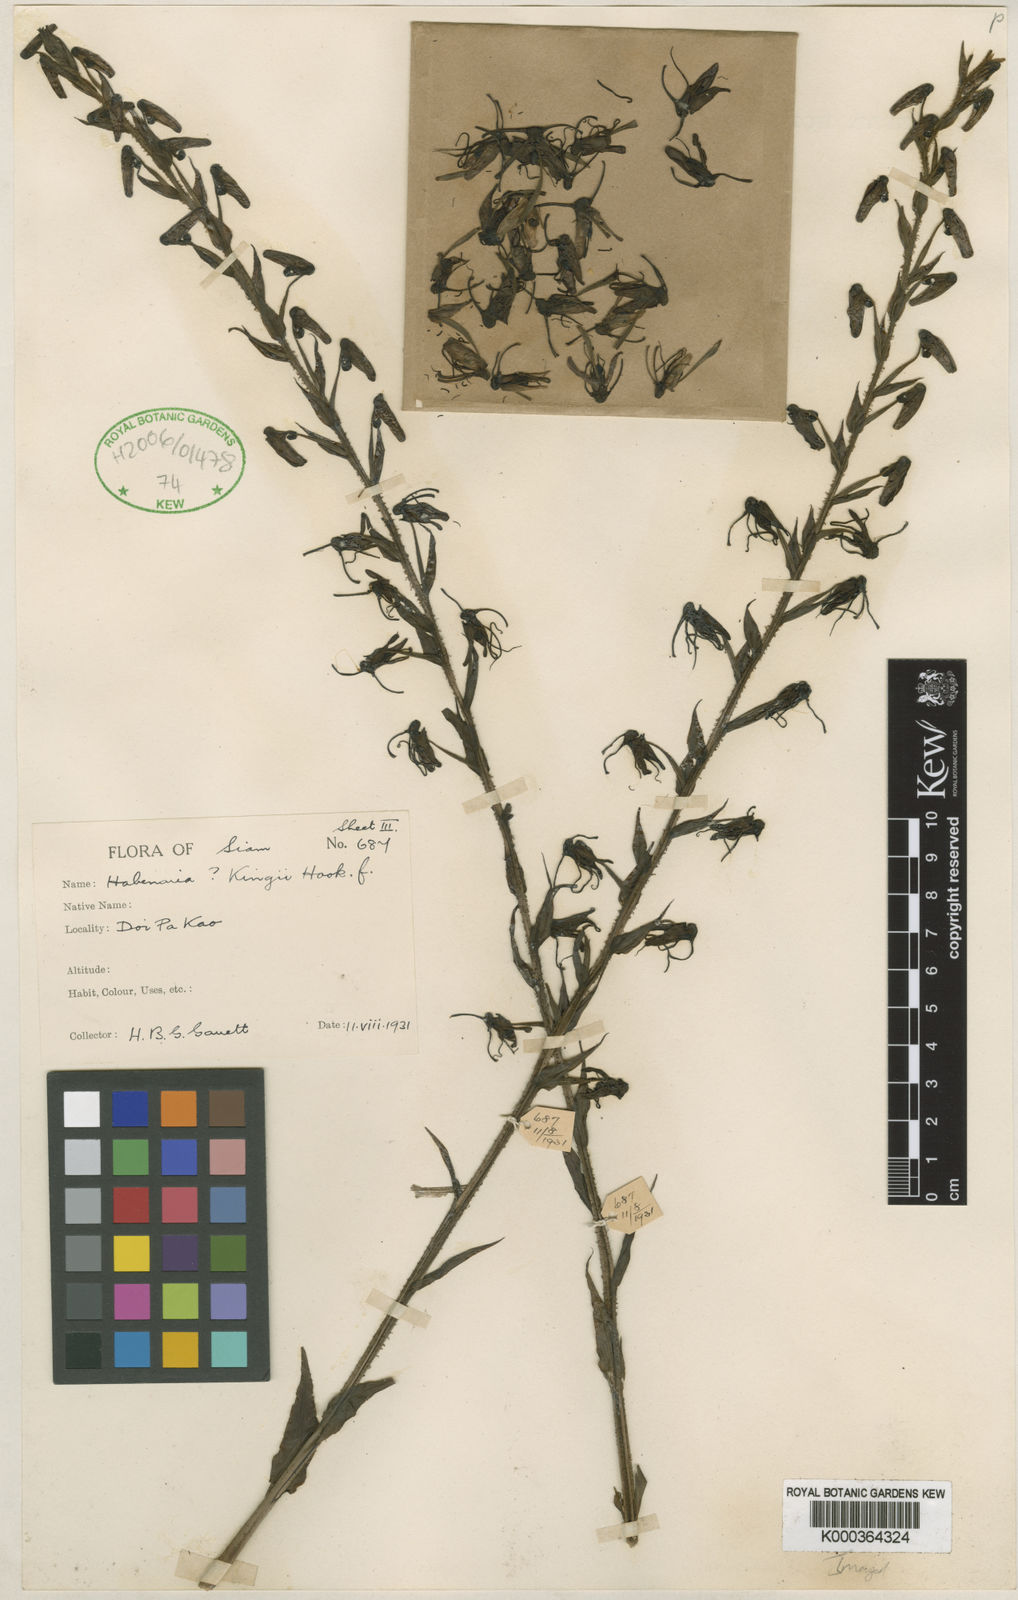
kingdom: Plantae
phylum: Tracheophyta
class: Liliopsida
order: Asparagales
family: Orchidaceae
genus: Habenaria
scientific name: Habenaria longitheca
